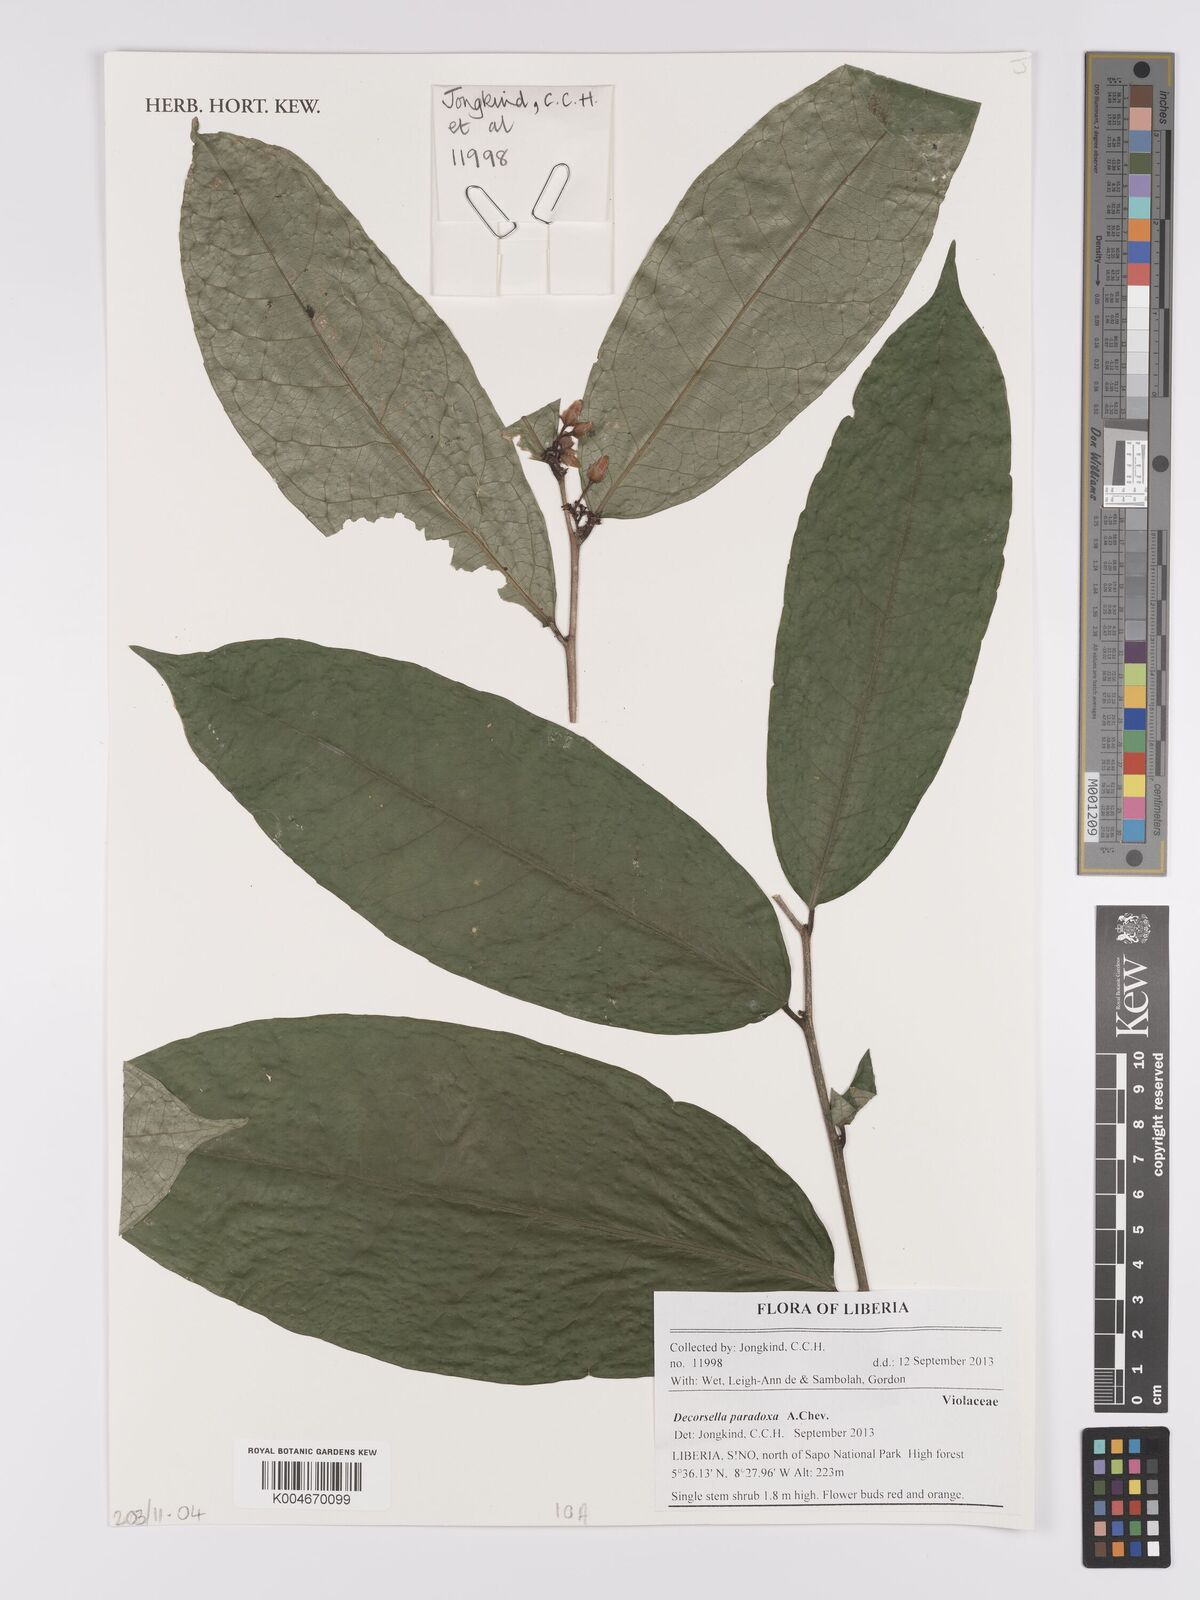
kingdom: Plantae
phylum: Tracheophyta
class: Magnoliopsida
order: Malpighiales
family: Violaceae
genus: Decorsella
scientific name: Decorsella paradoxa
